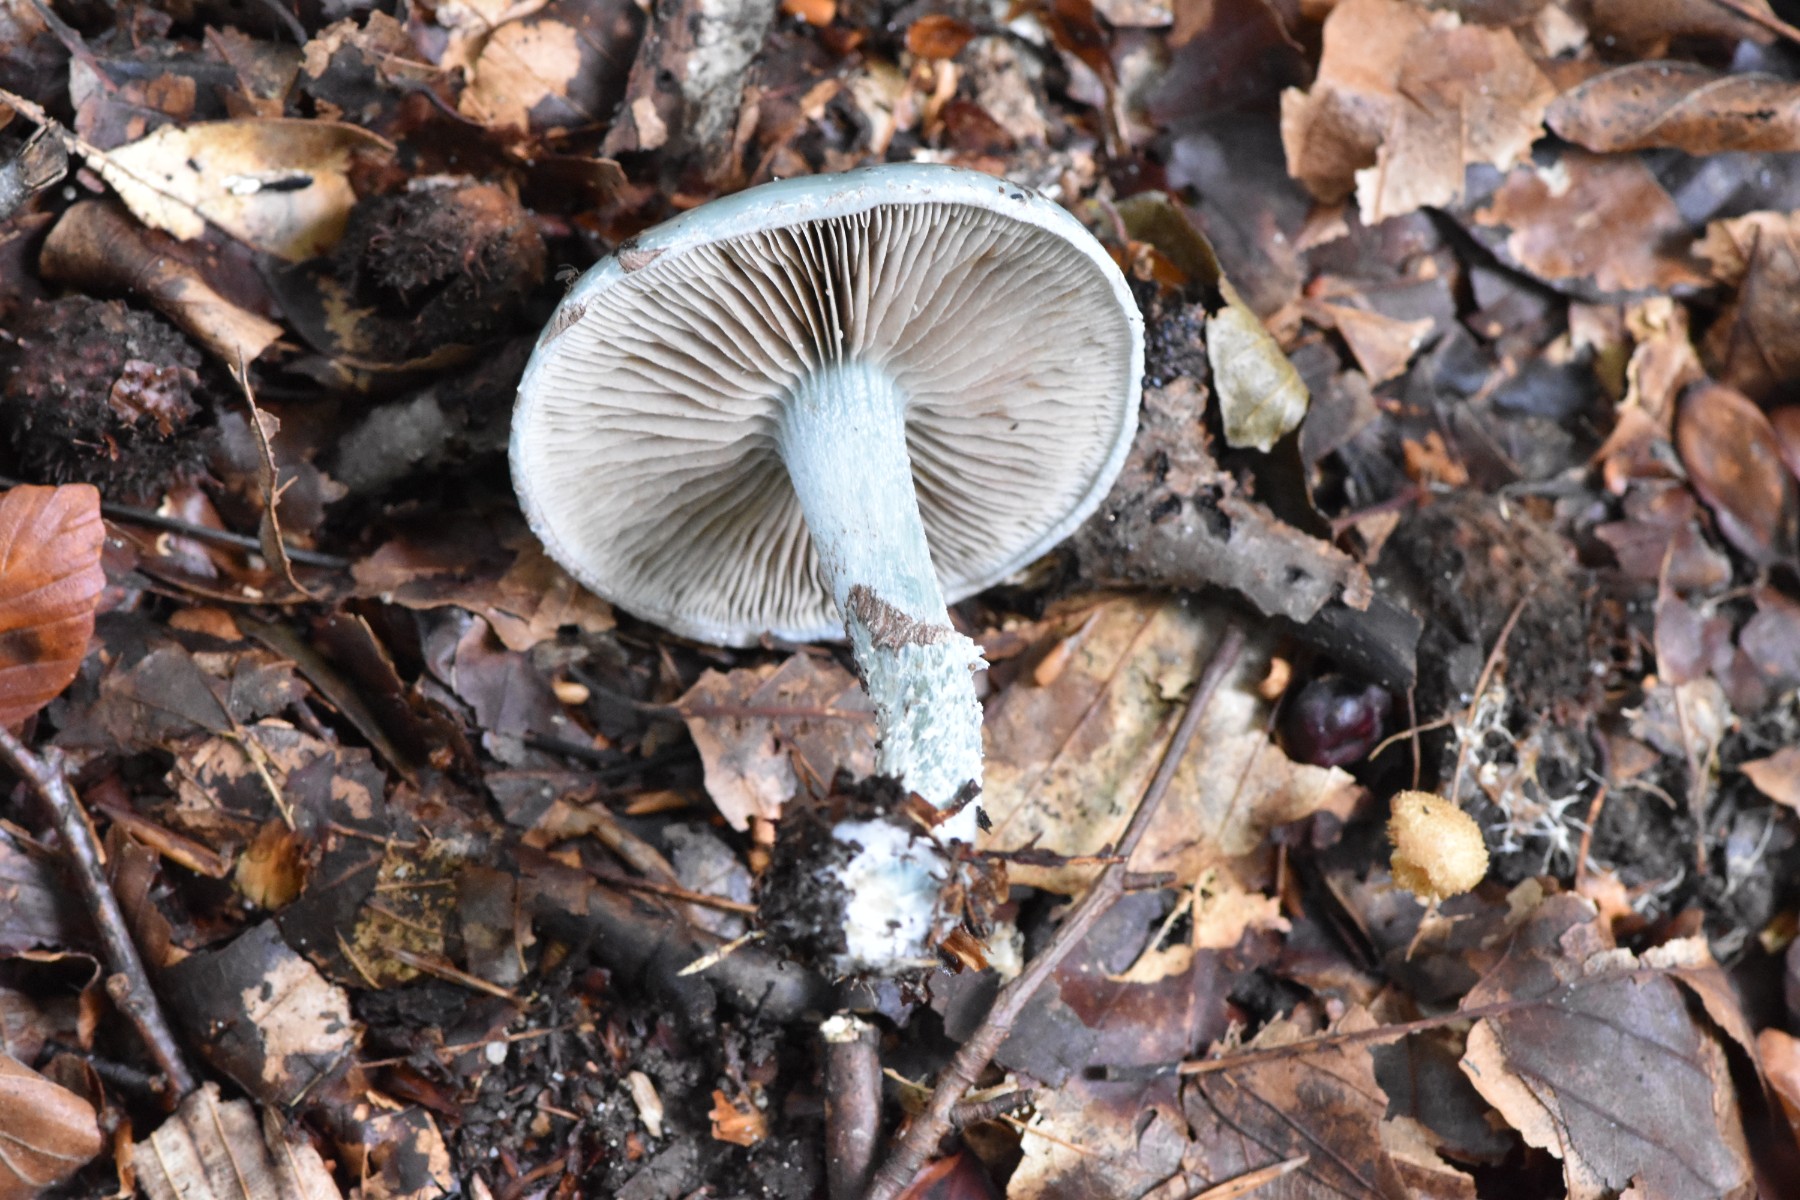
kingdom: Fungi
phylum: Basidiomycota
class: Agaricomycetes
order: Agaricales
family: Strophariaceae
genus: Stropharia
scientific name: Stropharia cyanea
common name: blågrøn bredblad
